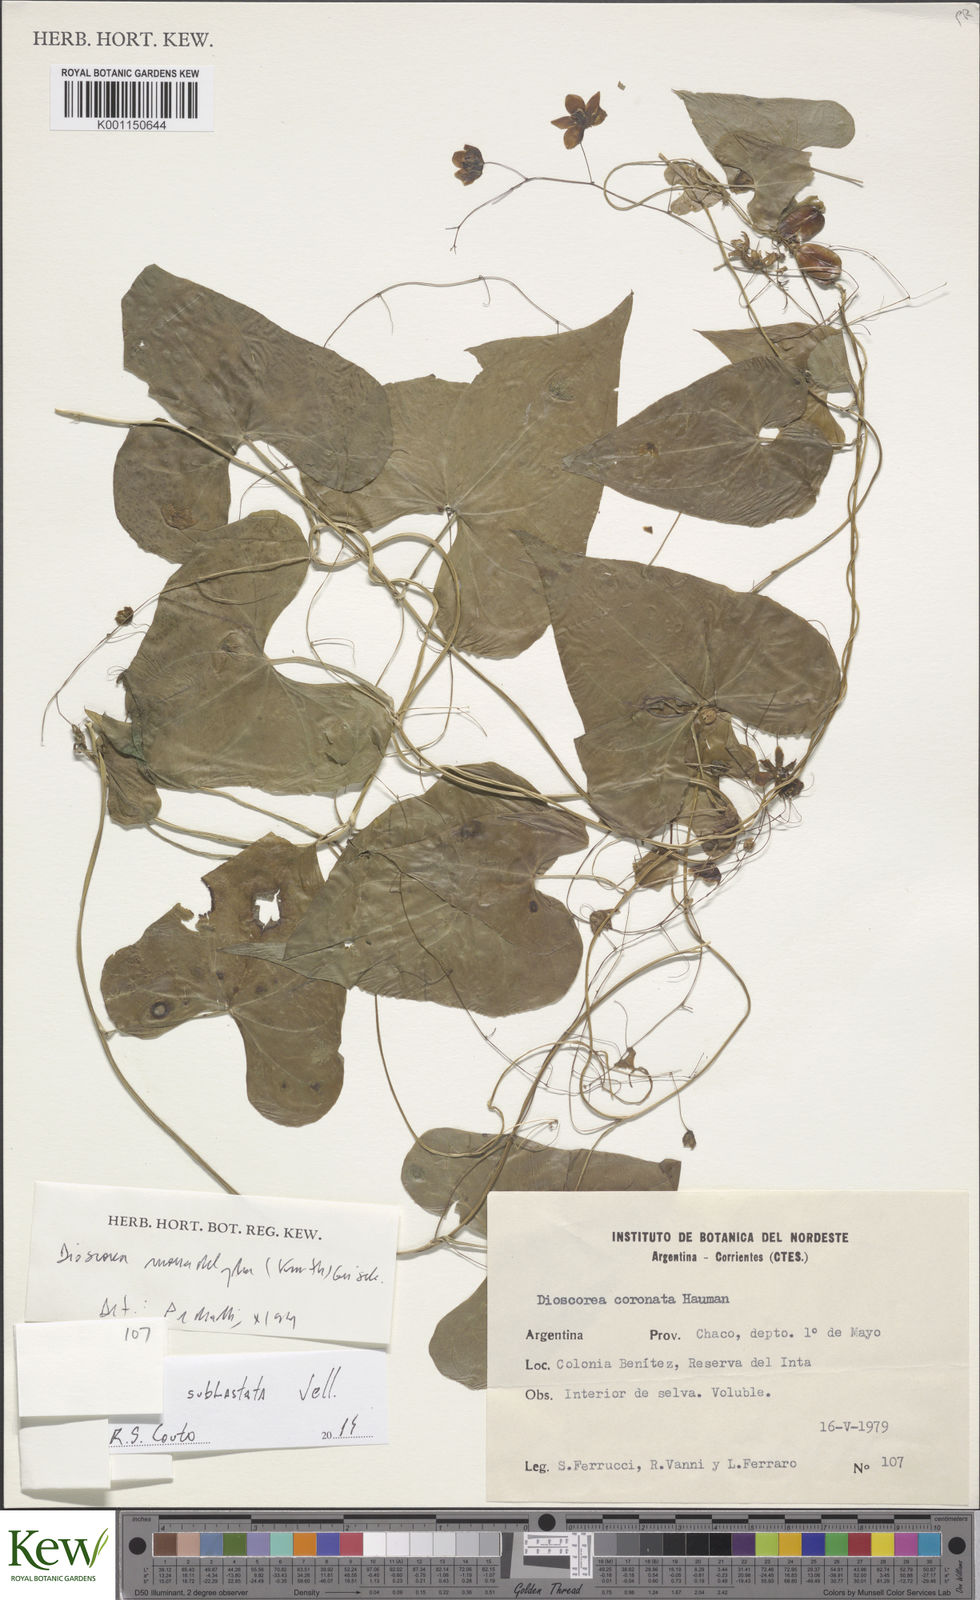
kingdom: Plantae
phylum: Tracheophyta
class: Liliopsida
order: Dioscoreales
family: Dioscoreaceae
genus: Dioscorea
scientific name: Dioscorea coronata
